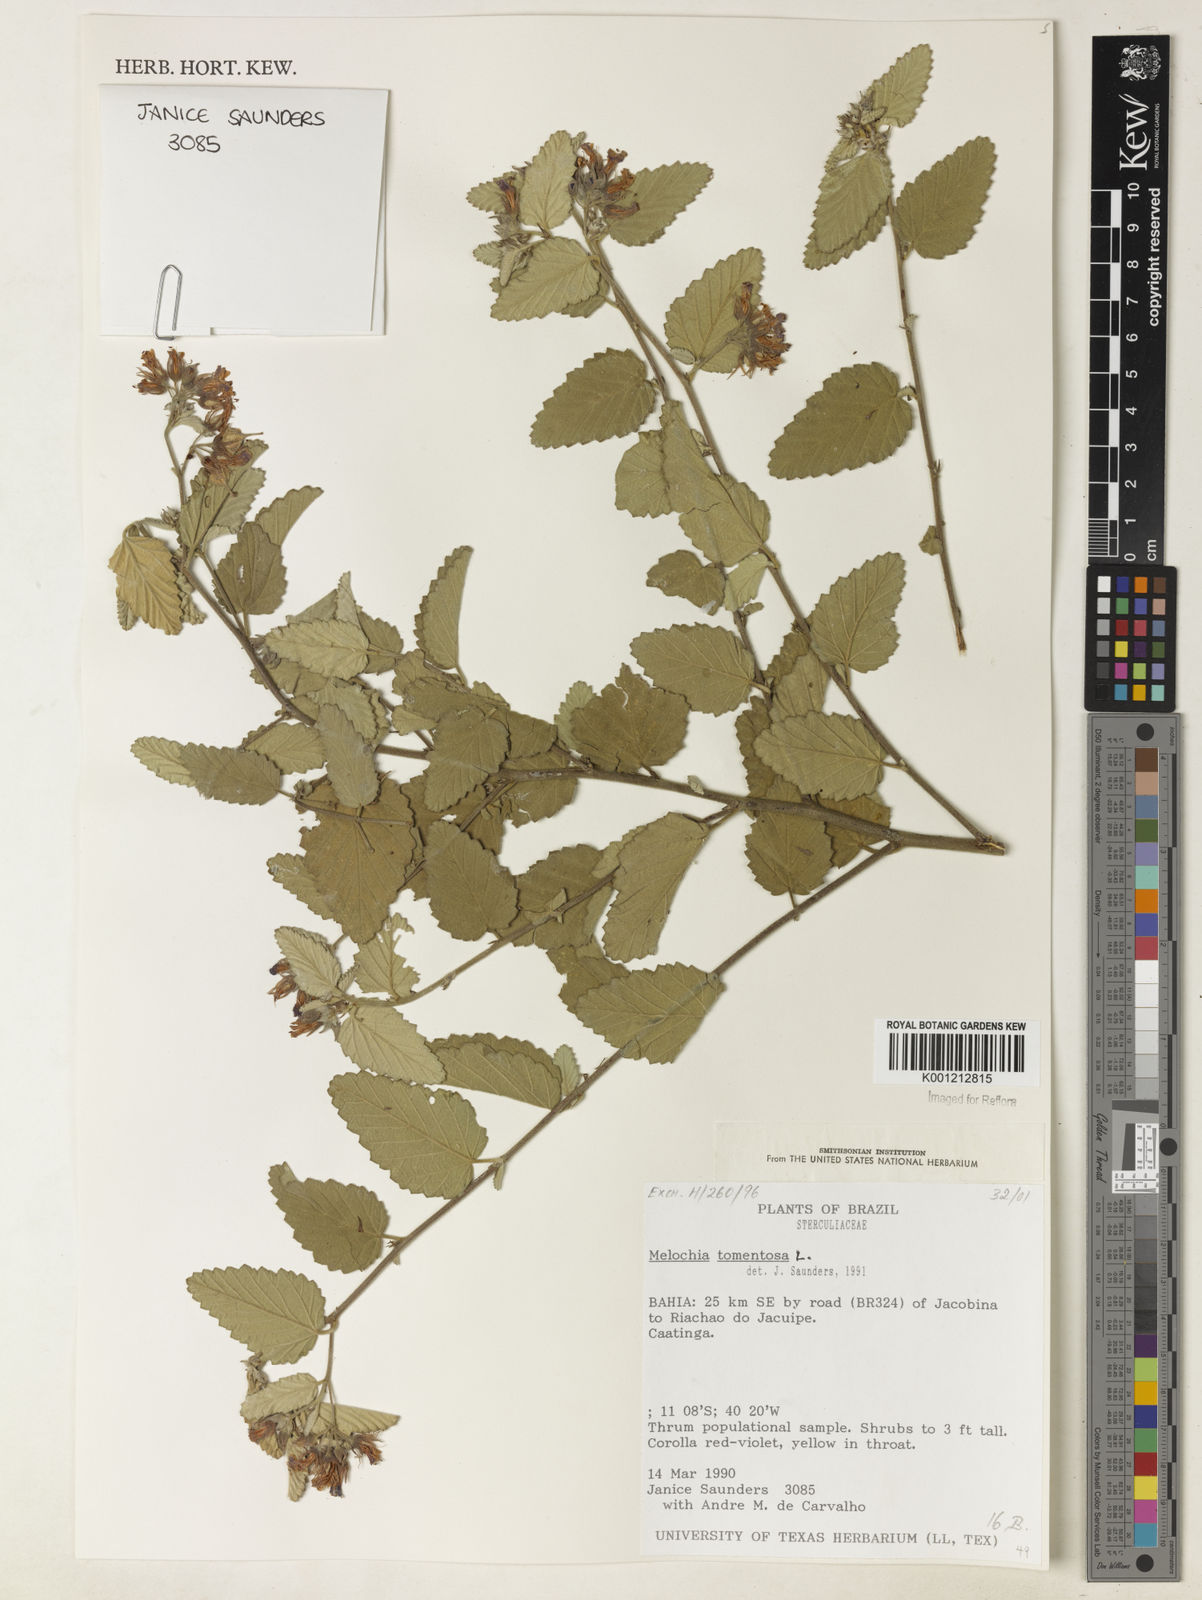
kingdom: Plantae
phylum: Tracheophyta
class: Magnoliopsida
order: Malvales
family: Malvaceae
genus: Melochia
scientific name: Melochia tomentosa
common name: Black torch
